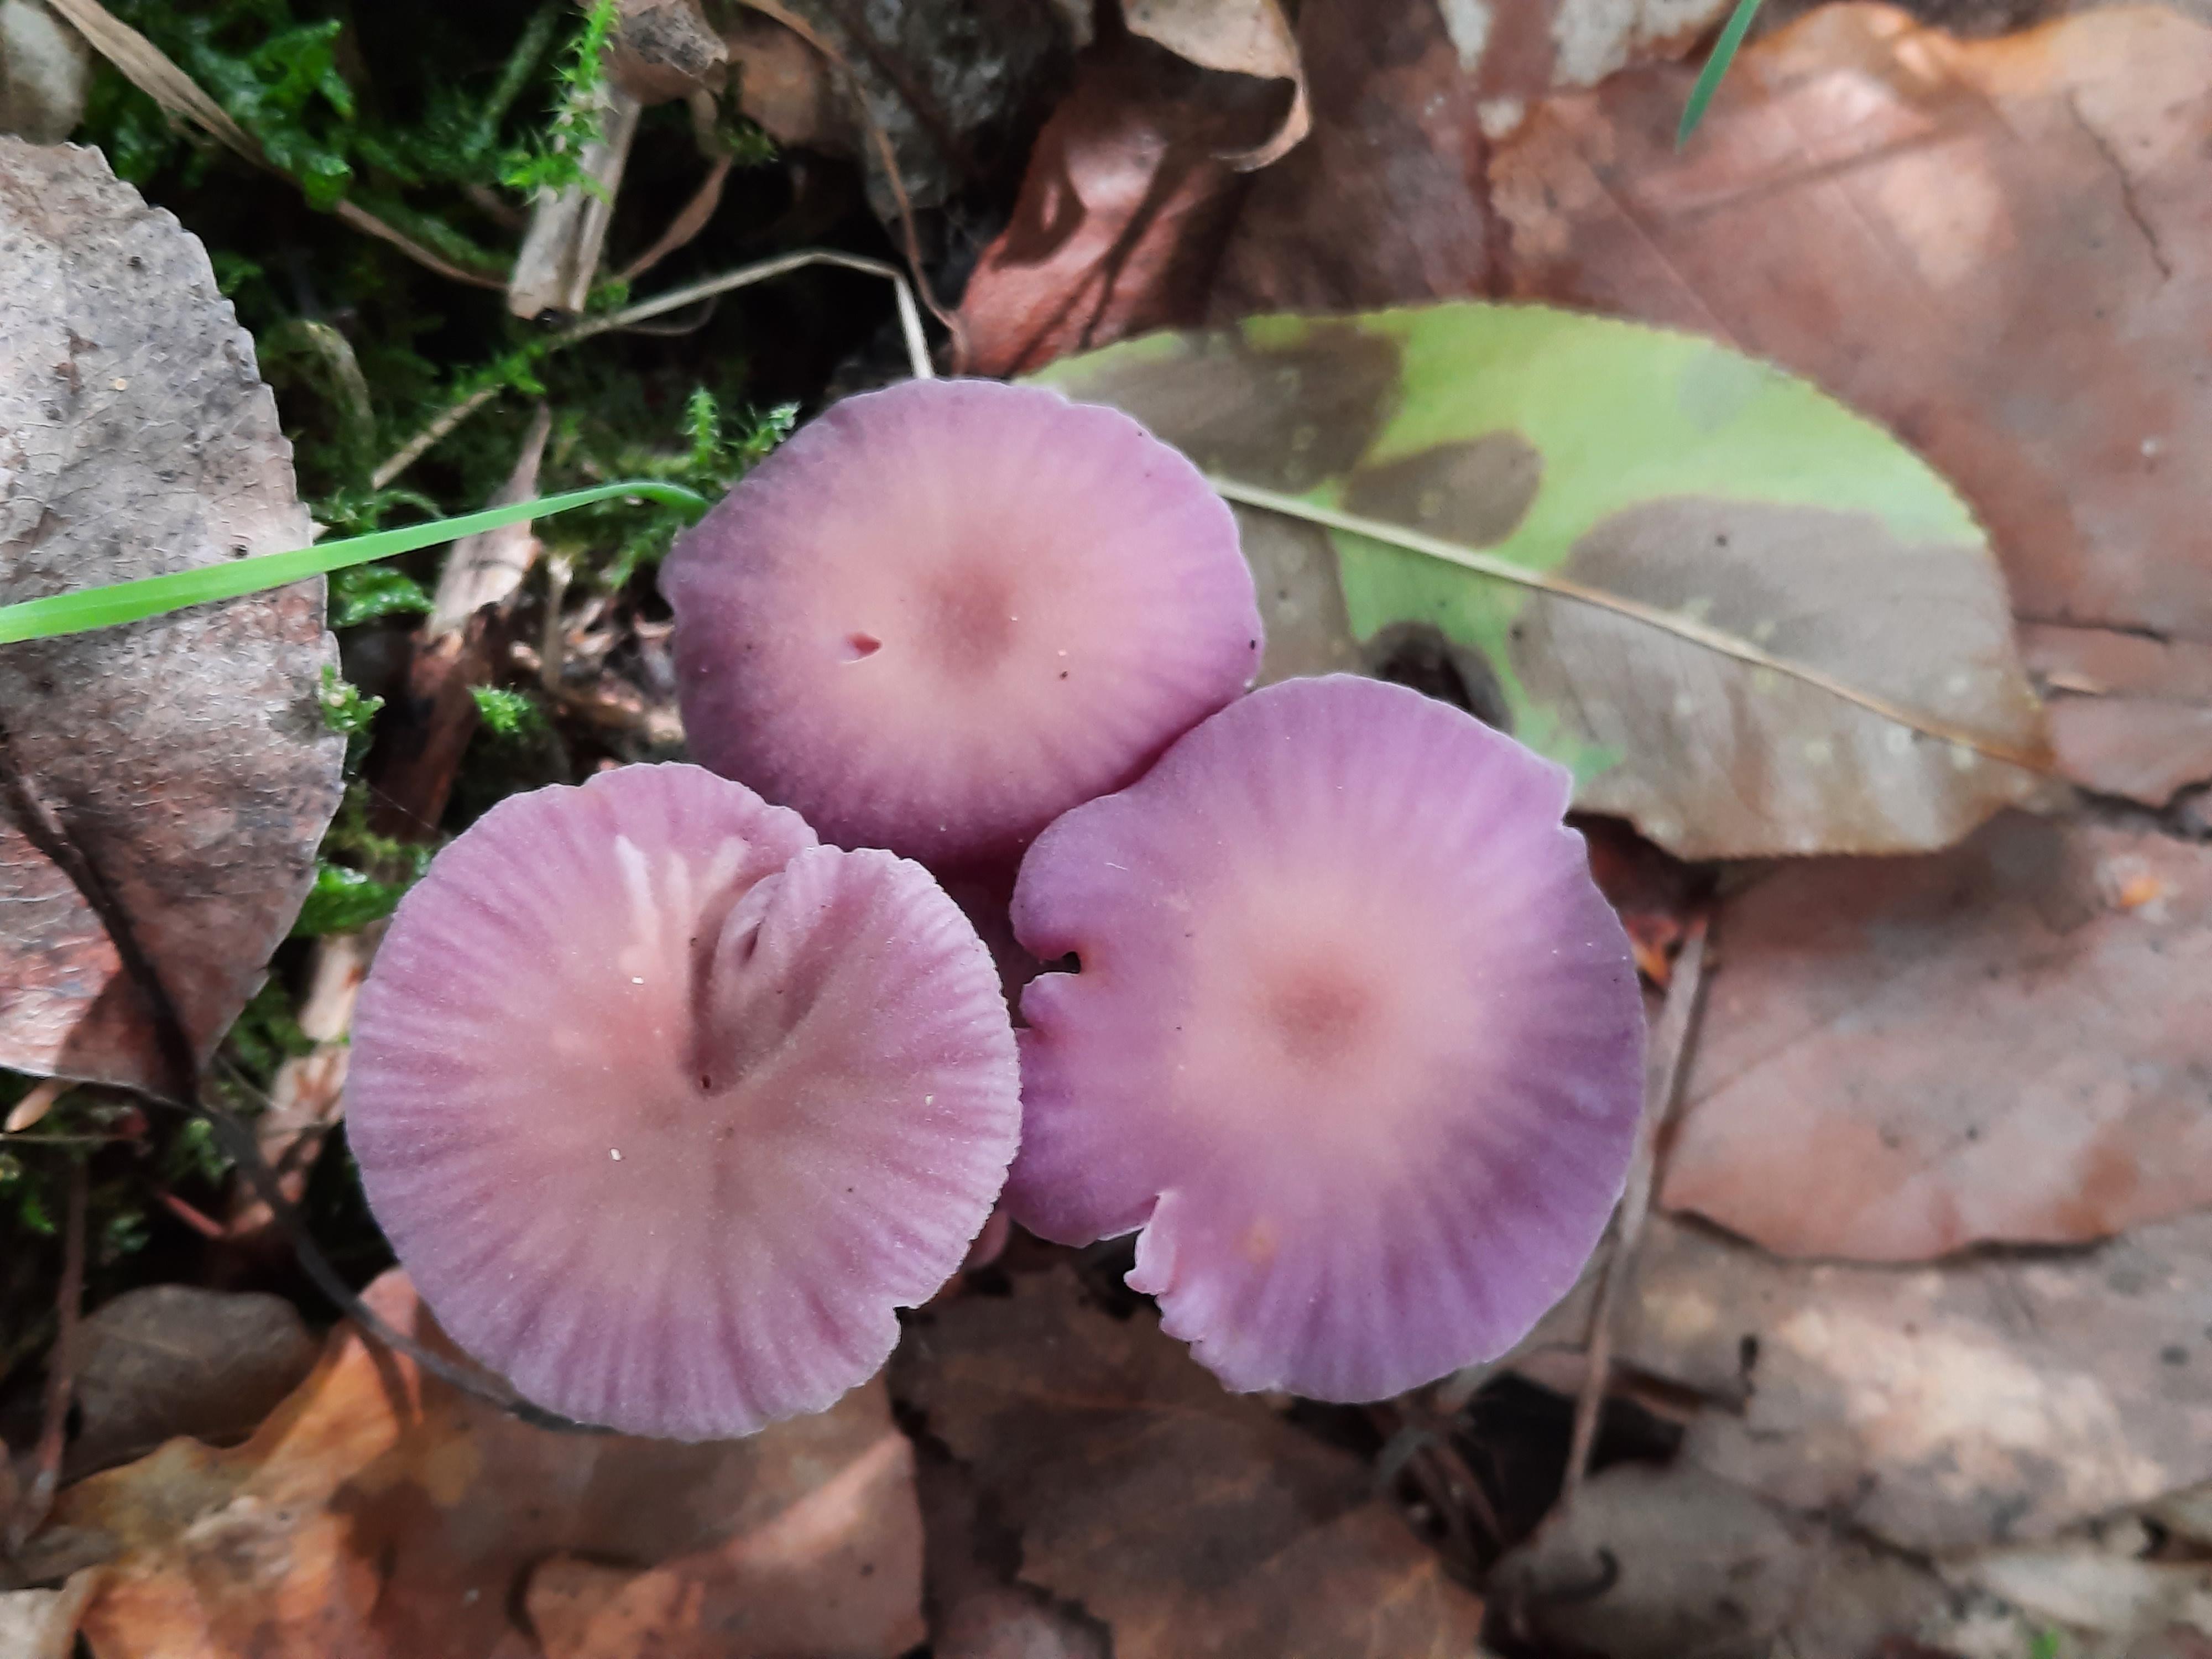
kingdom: Fungi
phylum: Basidiomycota
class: Agaricomycetes
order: Agaricales
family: Hydnangiaceae
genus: Laccaria
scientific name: Laccaria amethystina
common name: violet ametysthat
